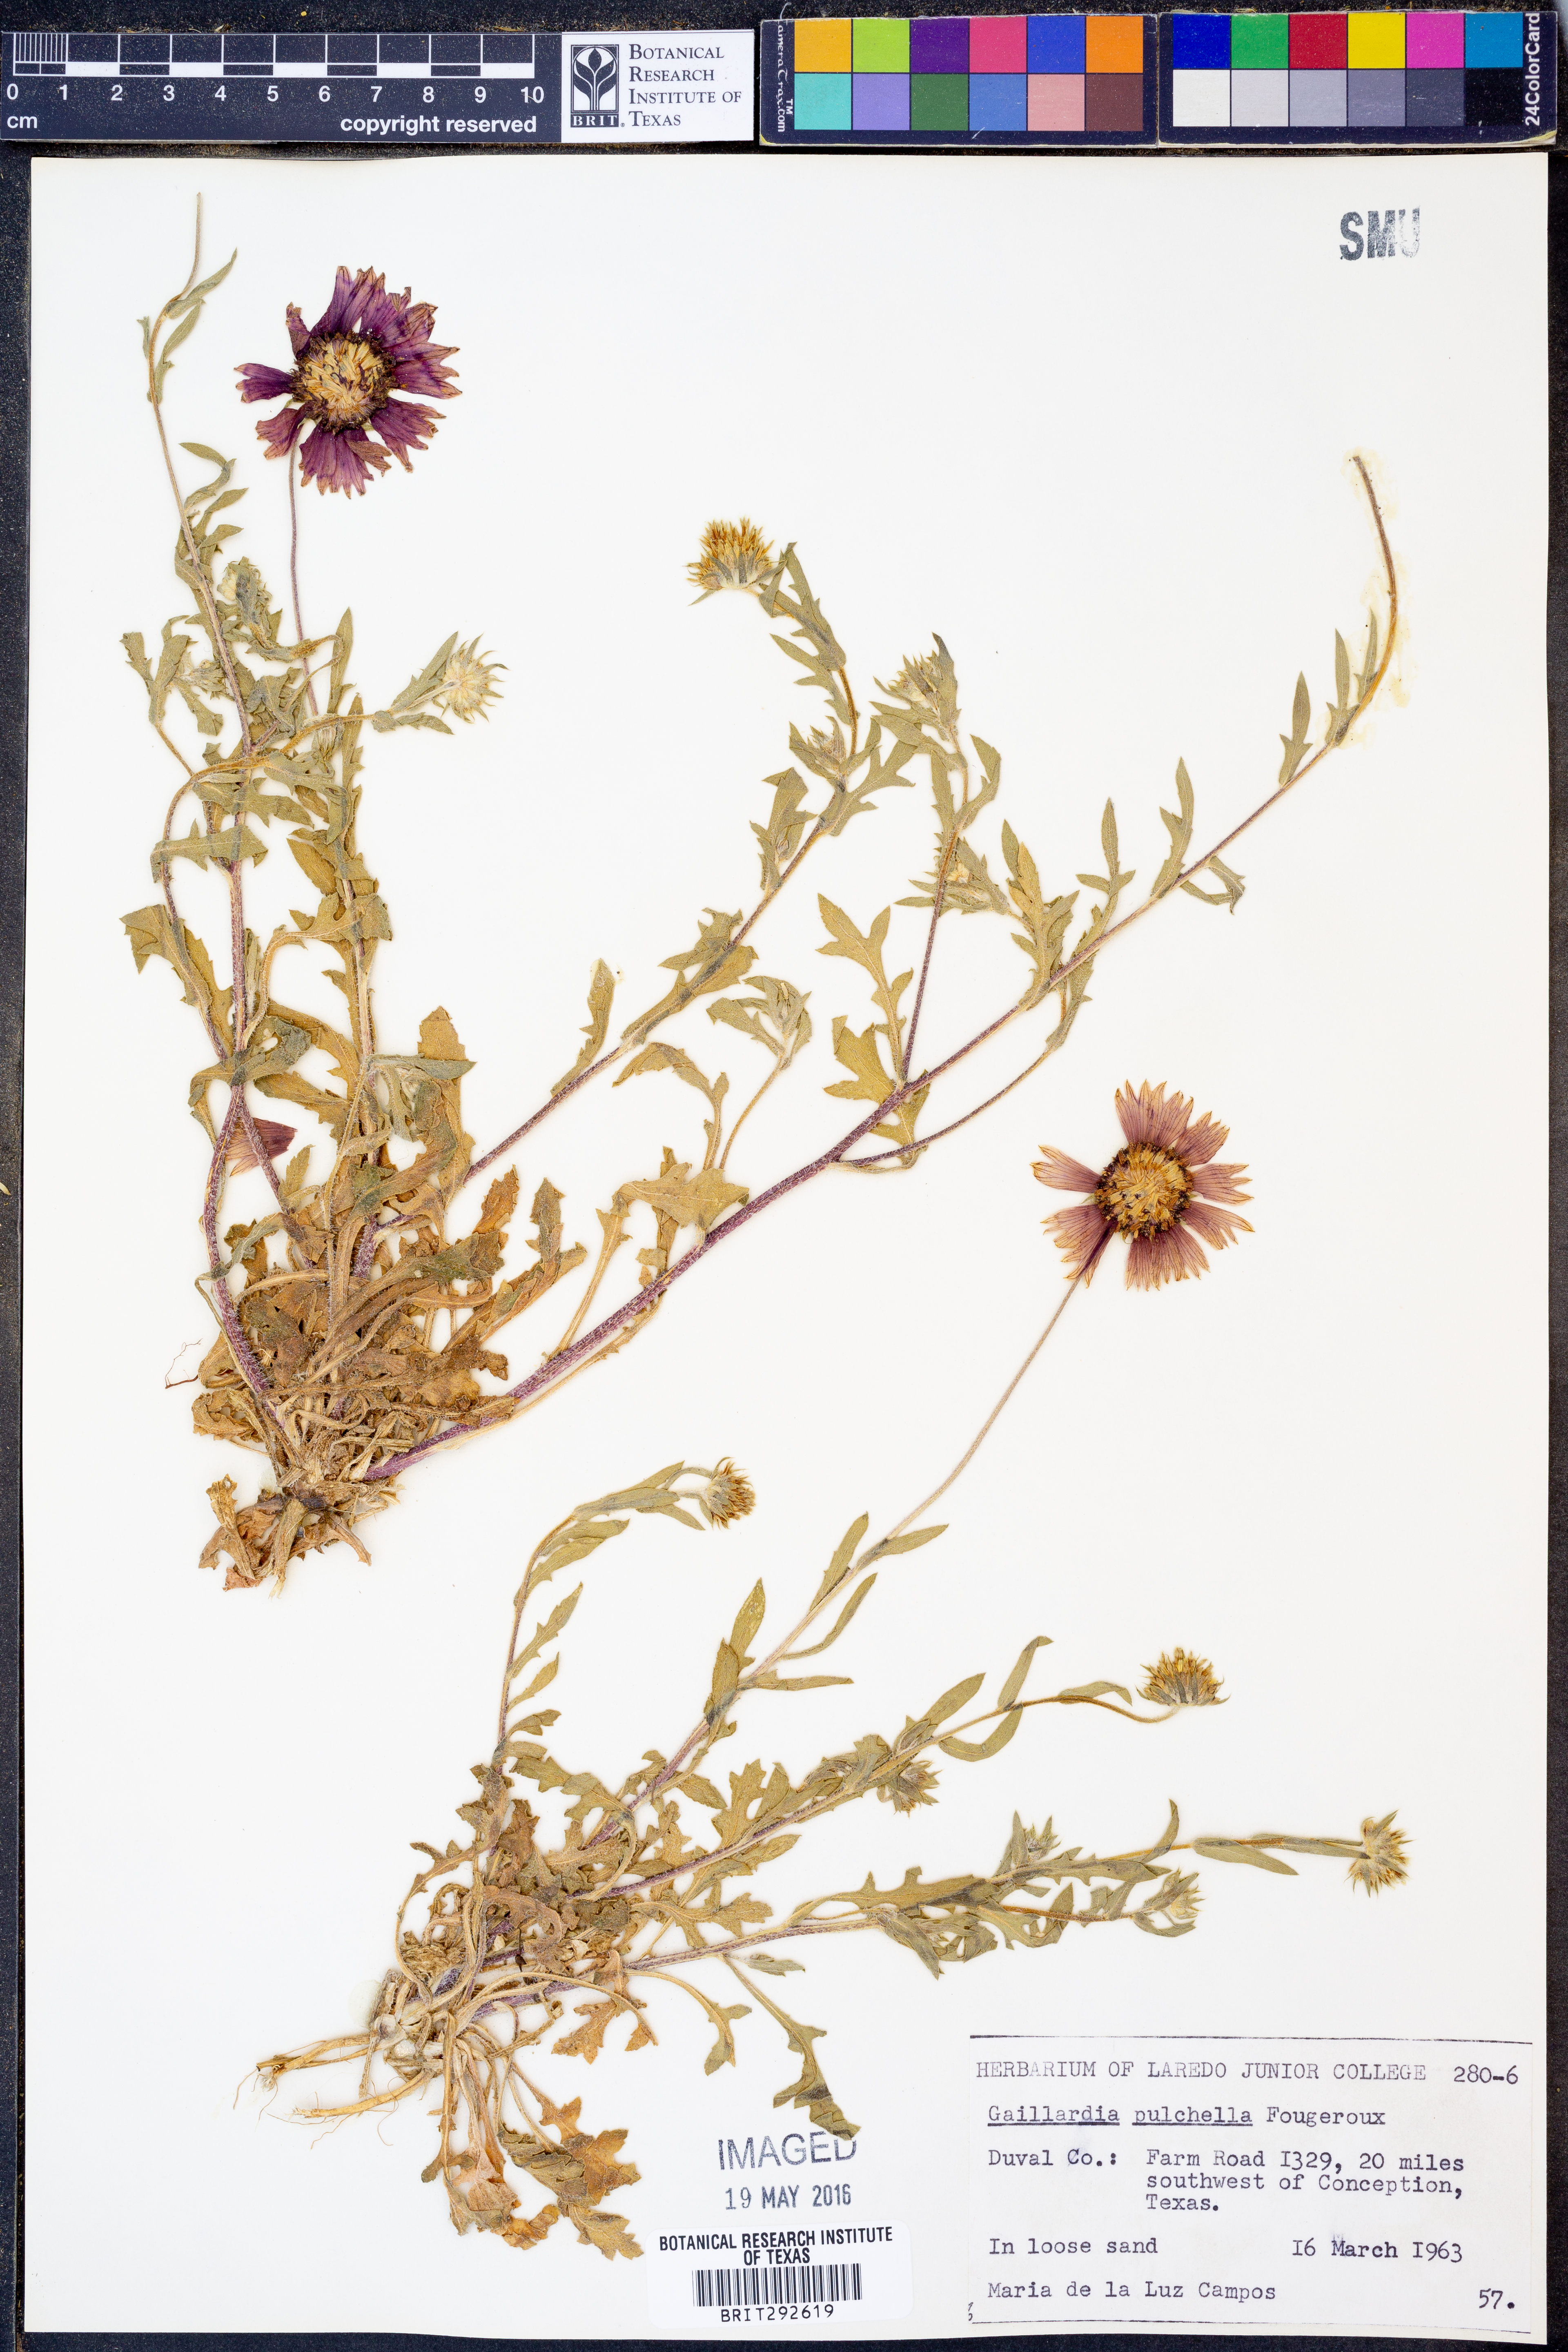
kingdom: Plantae
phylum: Tracheophyta
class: Magnoliopsida
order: Asterales
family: Asteraceae
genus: Gaillardia
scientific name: Gaillardia pulchella
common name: Firewheel
